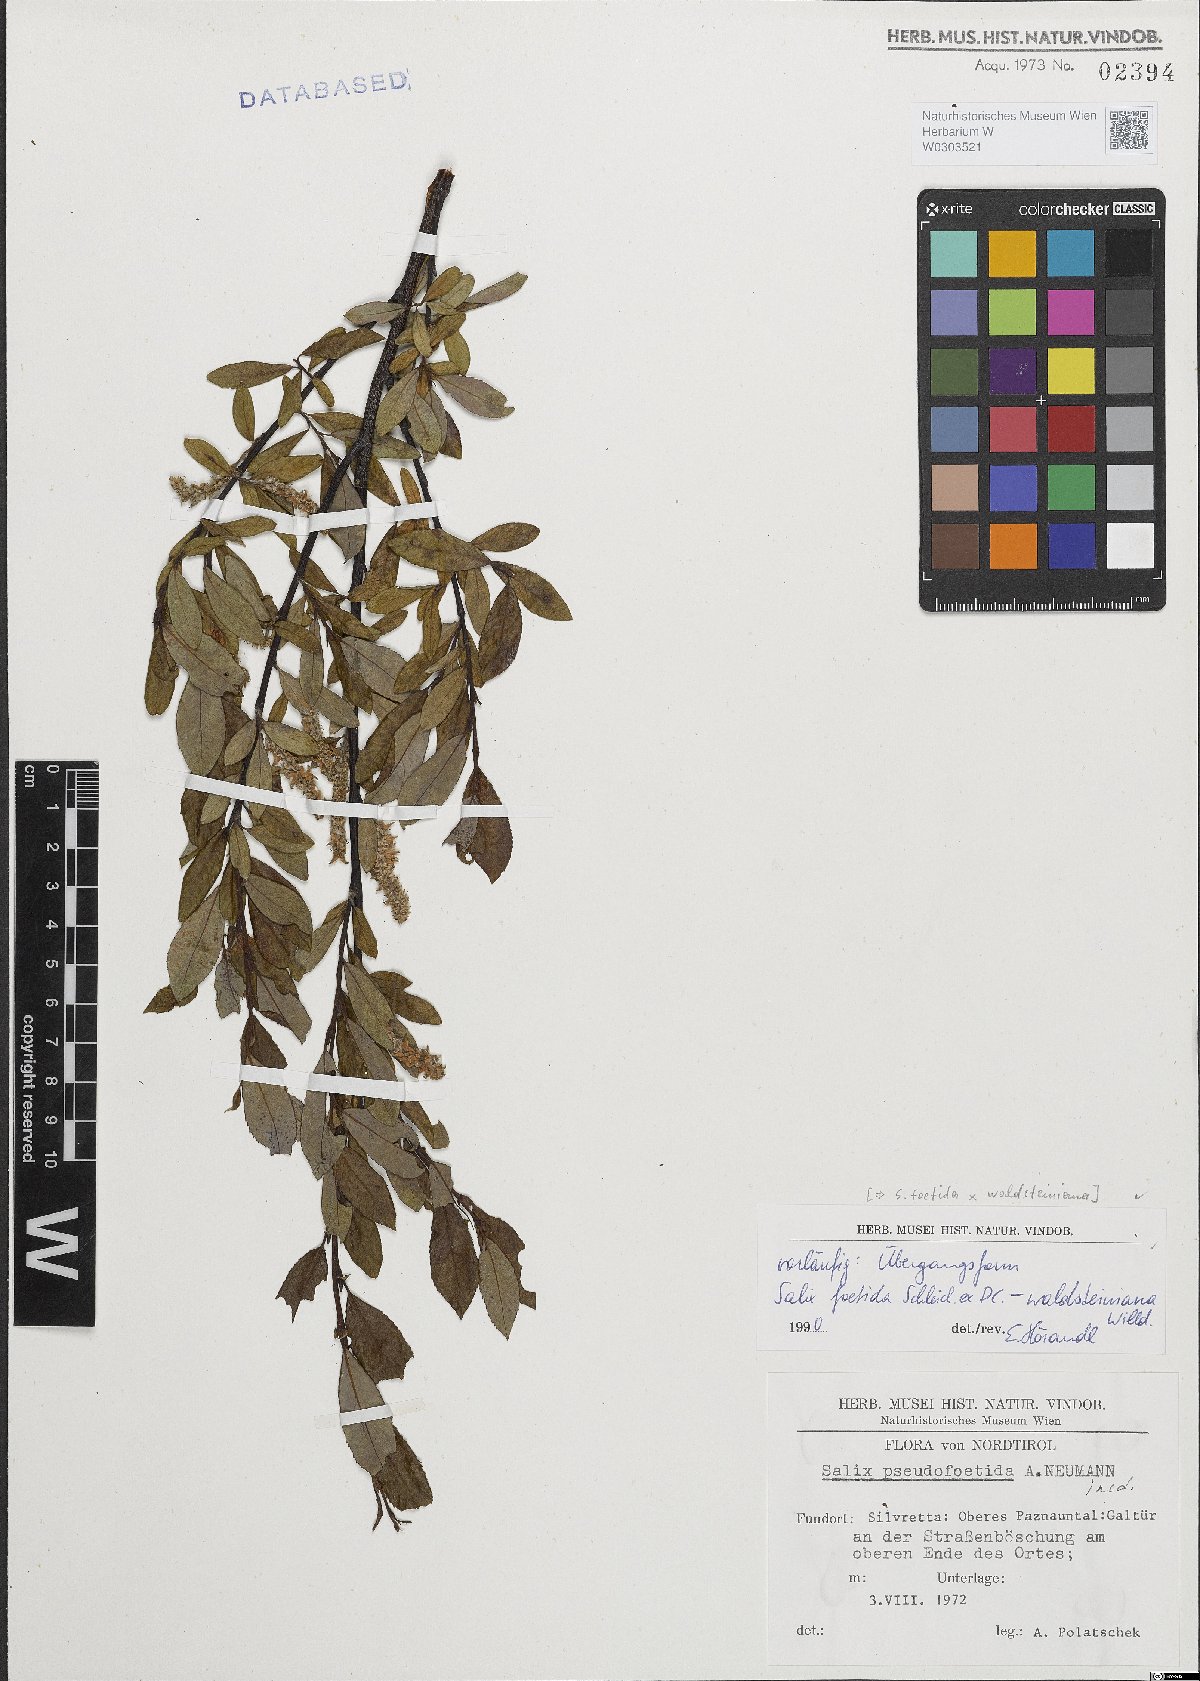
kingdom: Plantae
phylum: Tracheophyta
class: Magnoliopsida
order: Malpighiales
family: Salicaceae
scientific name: Salicaceae
